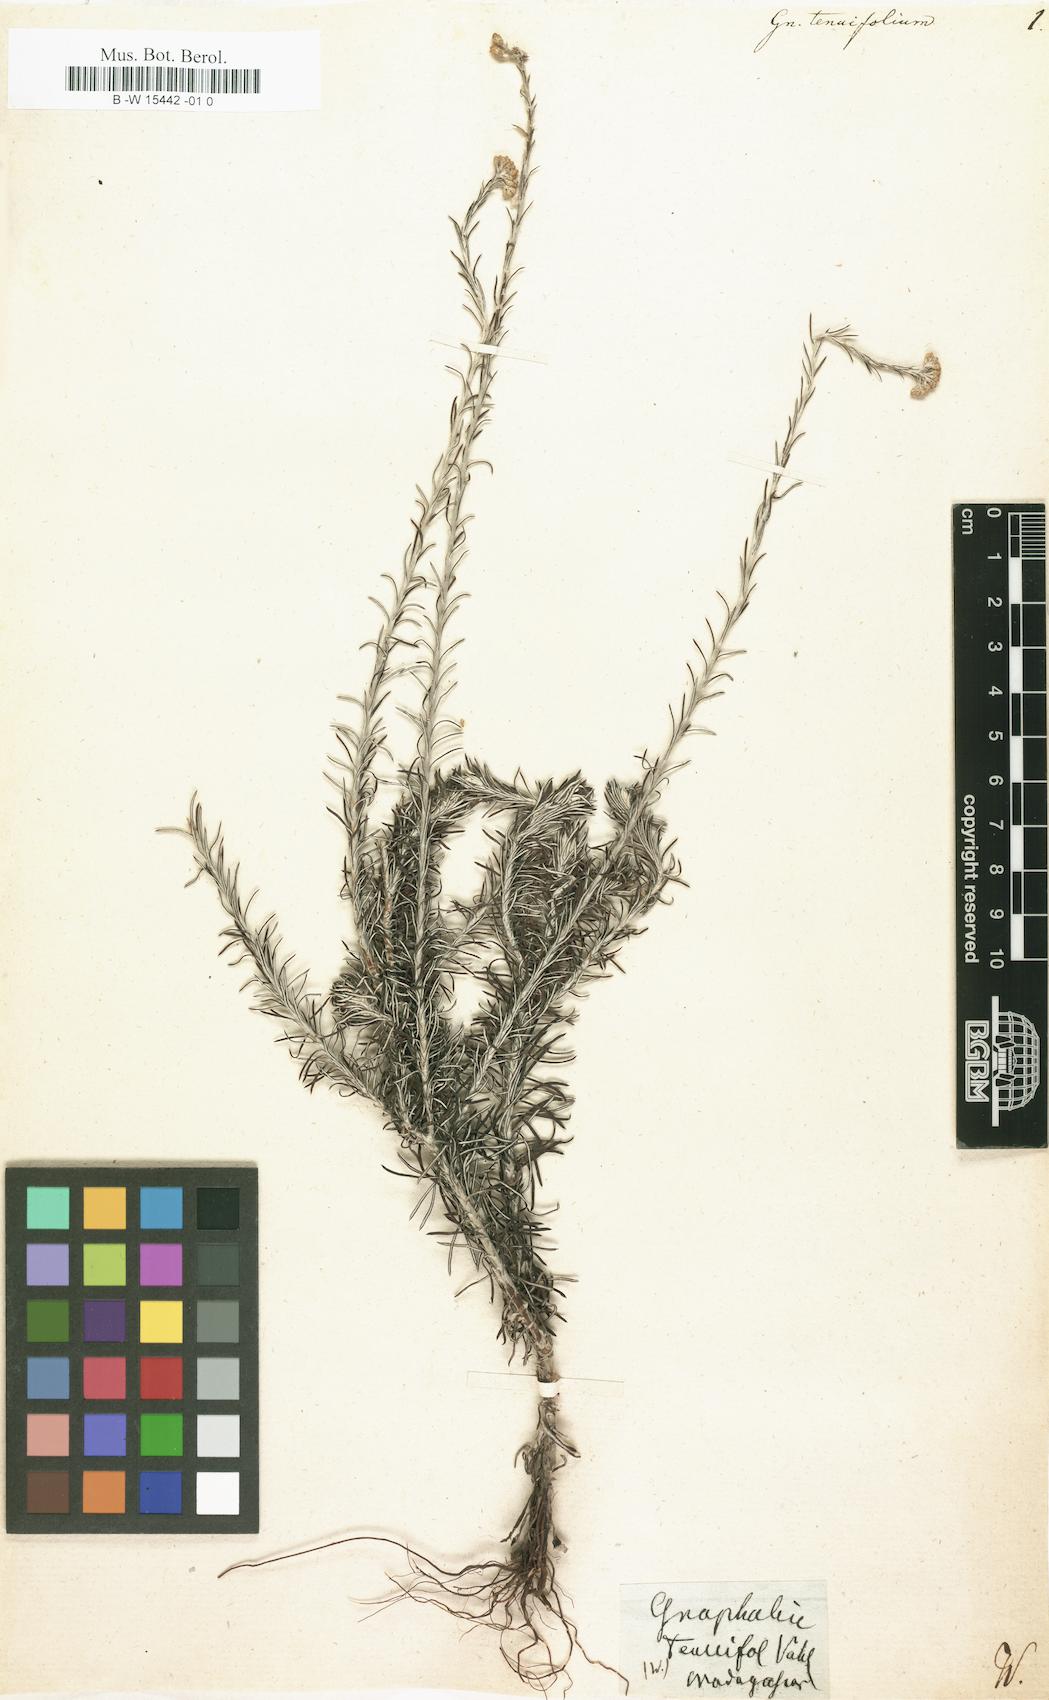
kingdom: Plantae
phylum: Tracheophyta
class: Magnoliopsida
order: Asterales
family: Asteraceae
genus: Gnaphalium
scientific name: Gnaphalium tenuifolium
